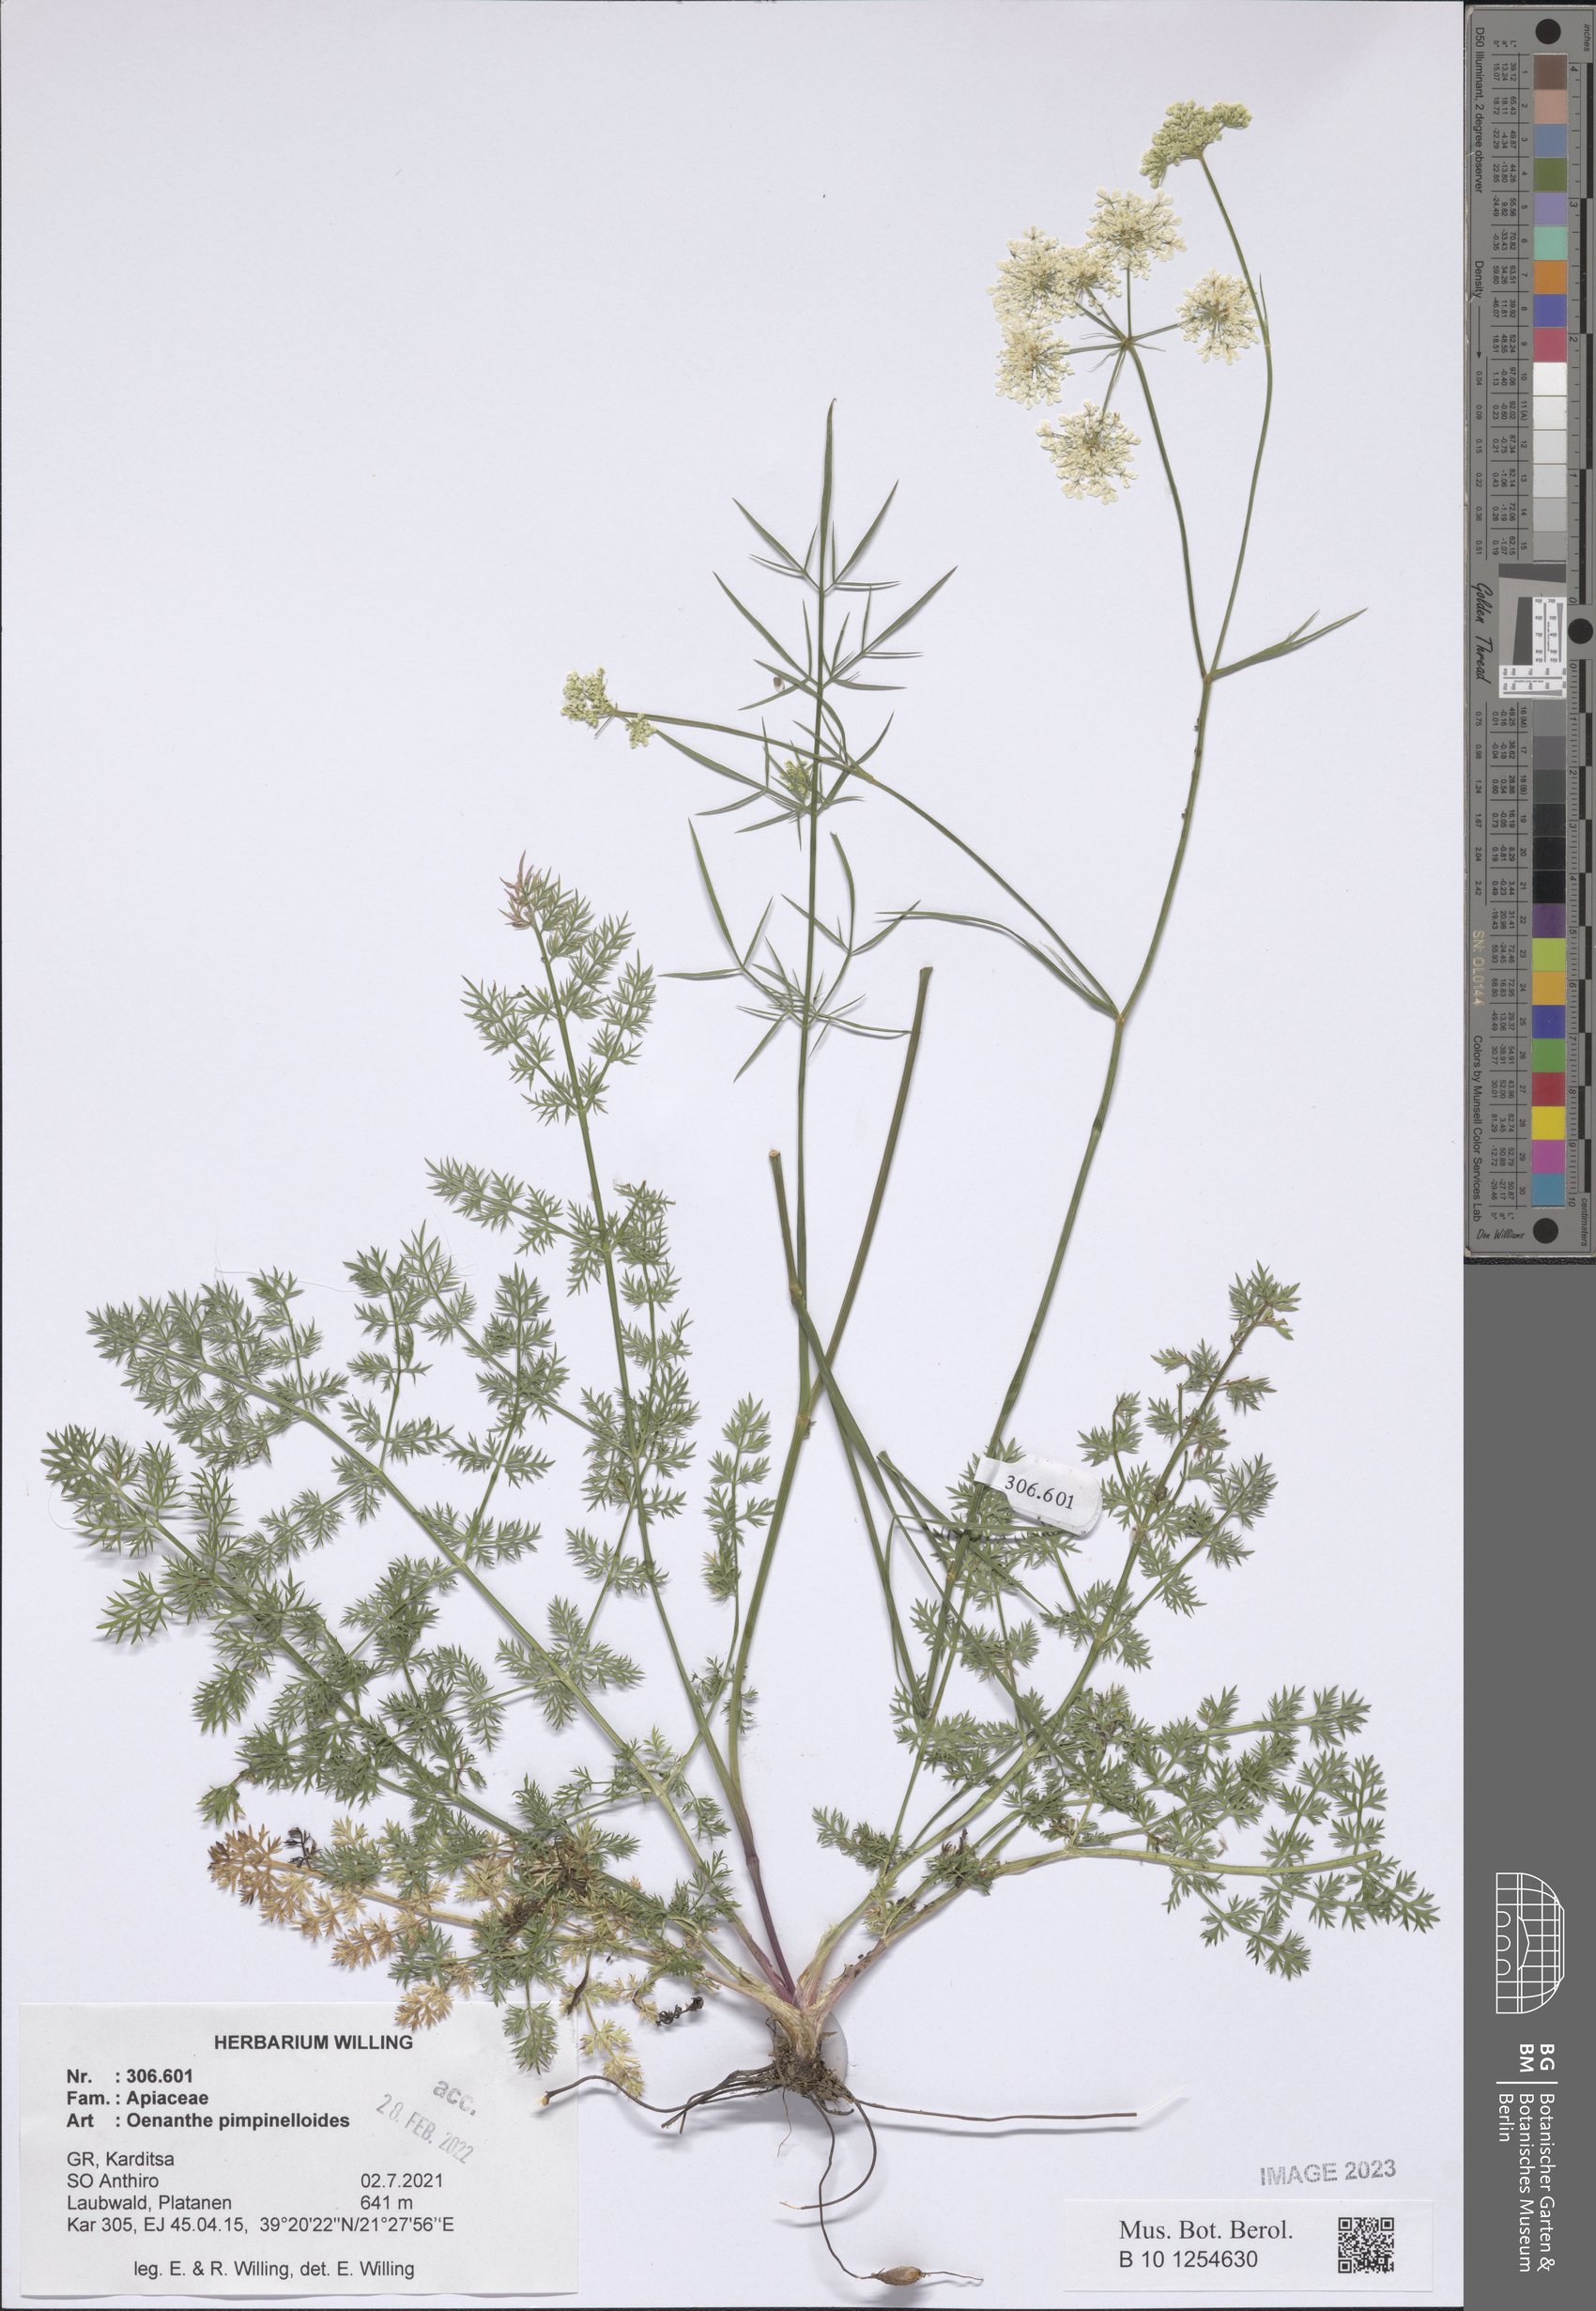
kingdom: Plantae
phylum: Tracheophyta
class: Magnoliopsida
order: Apiales
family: Apiaceae
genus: Oenanthe
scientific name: Oenanthe pimpinelloides
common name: Corky-fruited water-dropwort
